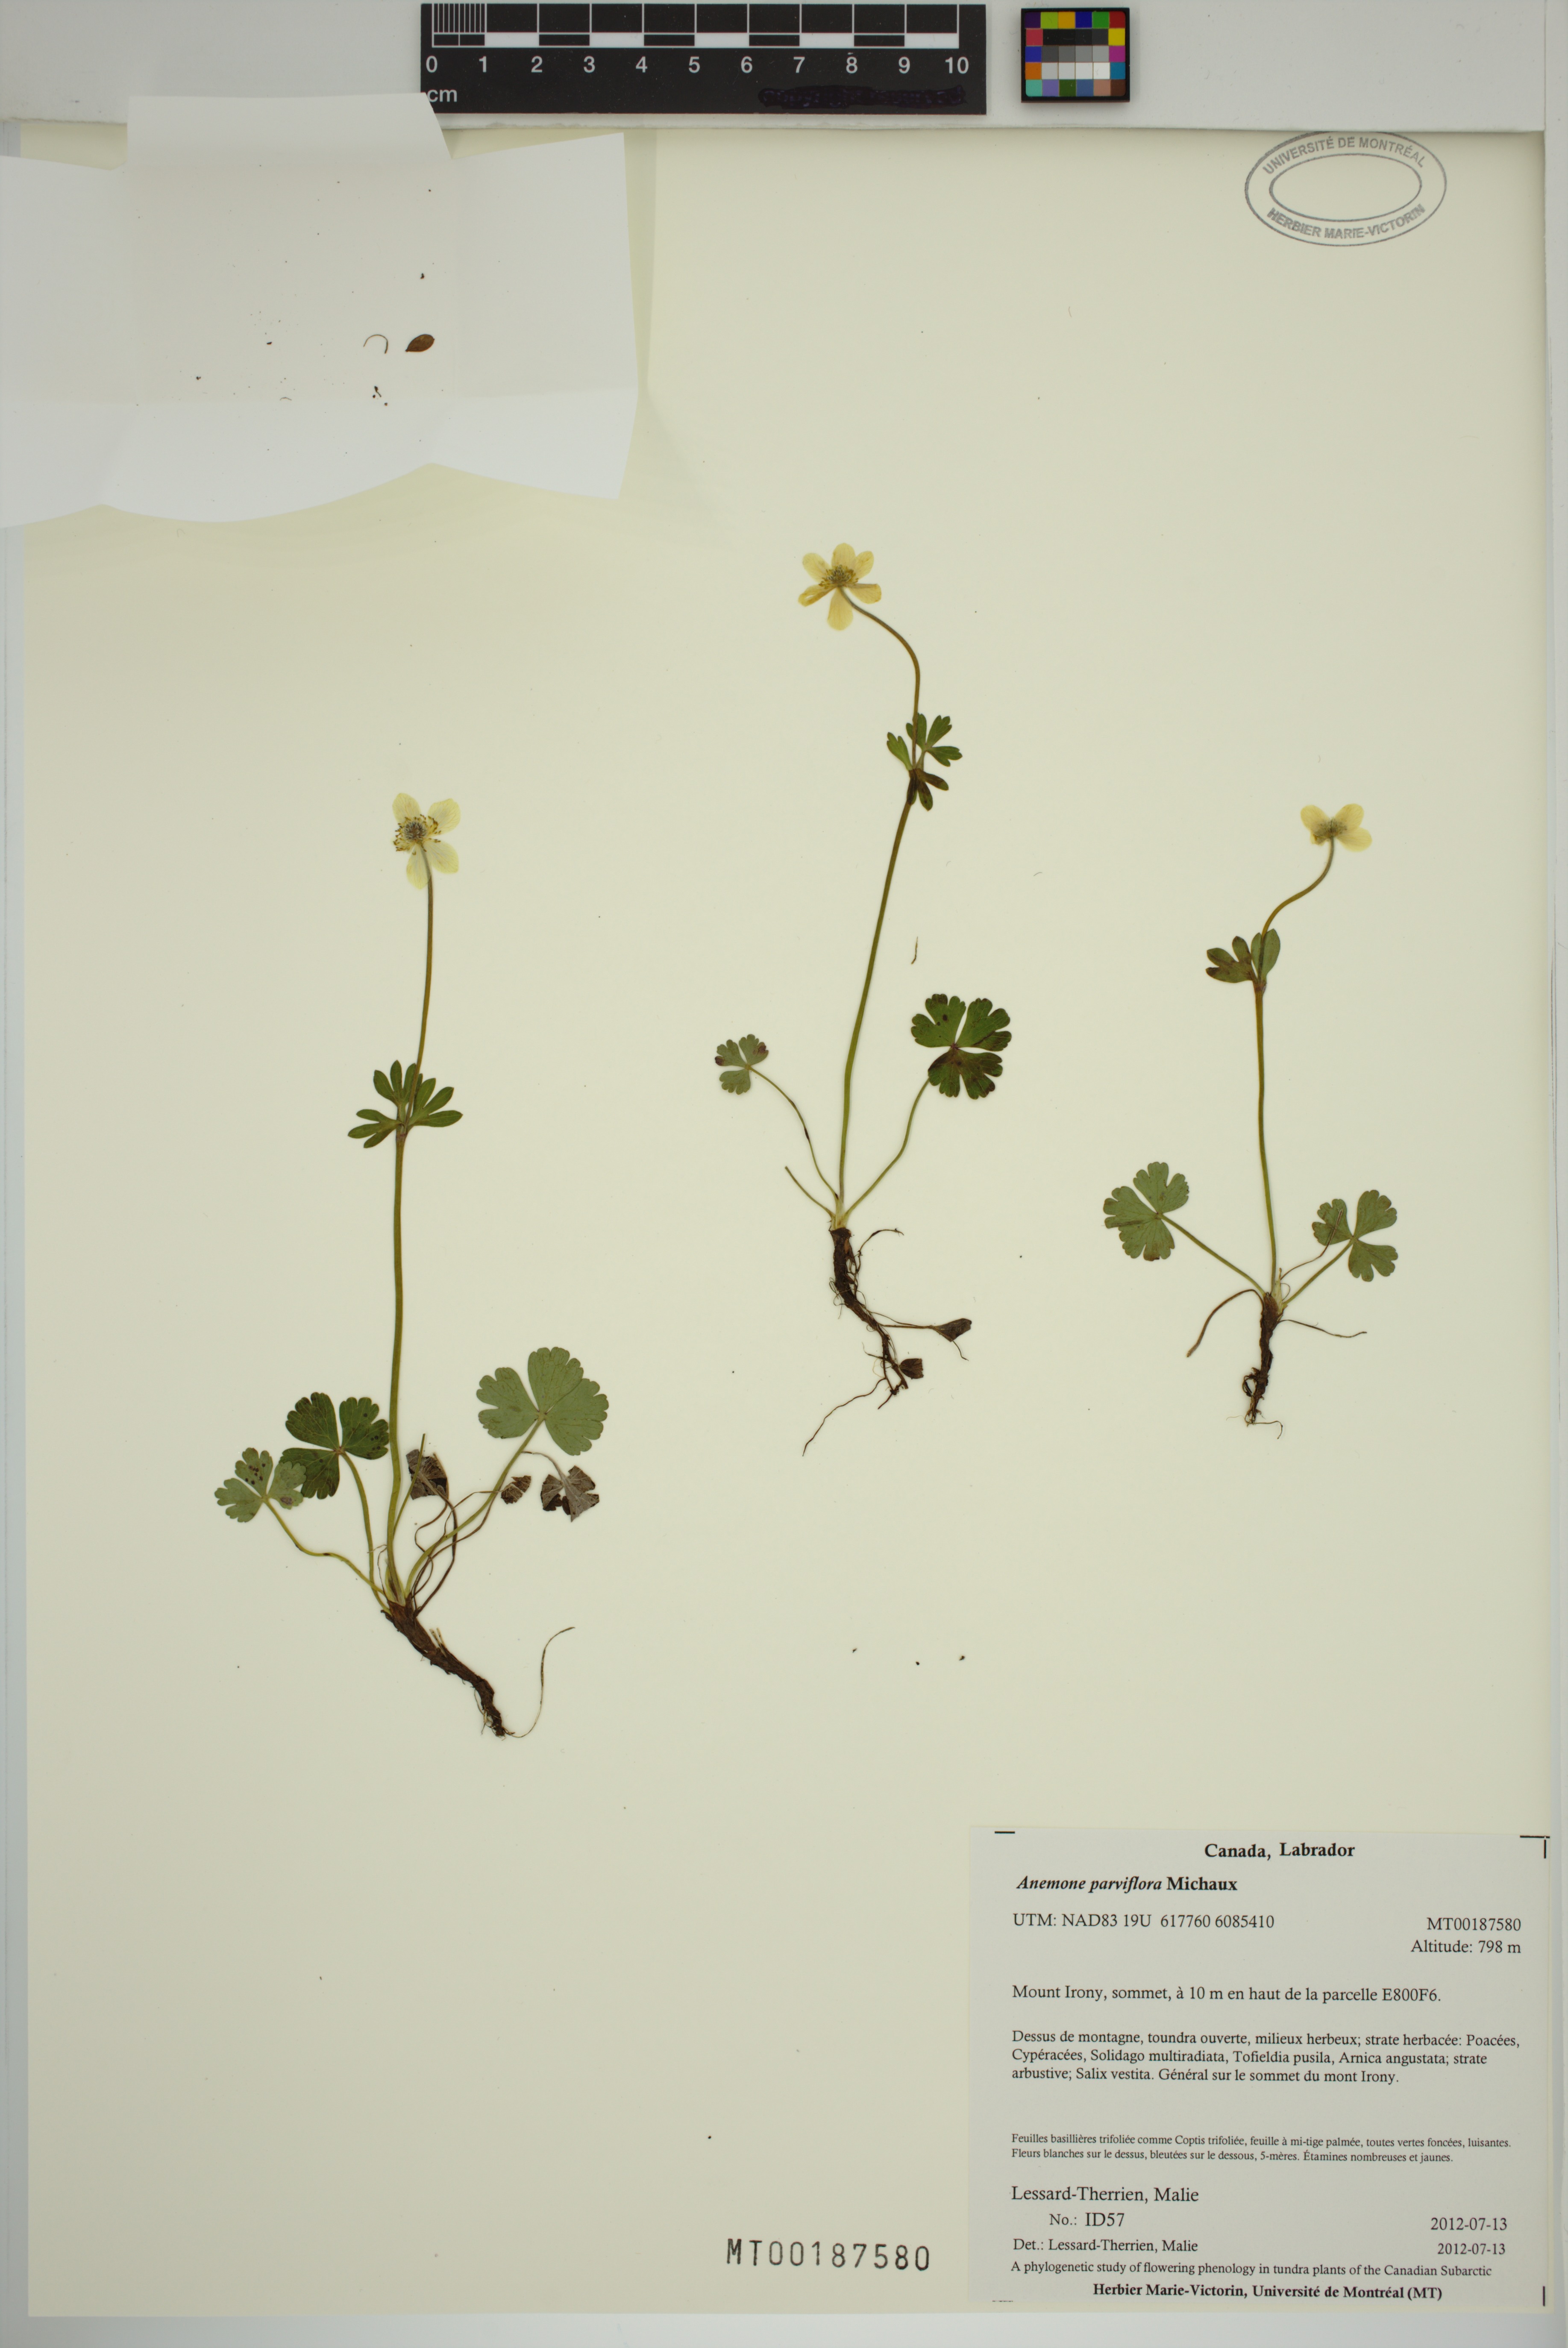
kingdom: Plantae
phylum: Tracheophyta
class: Magnoliopsida
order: Ranunculales
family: Ranunculaceae
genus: Anemone
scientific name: Anemone parviflora
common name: Northern anemone
